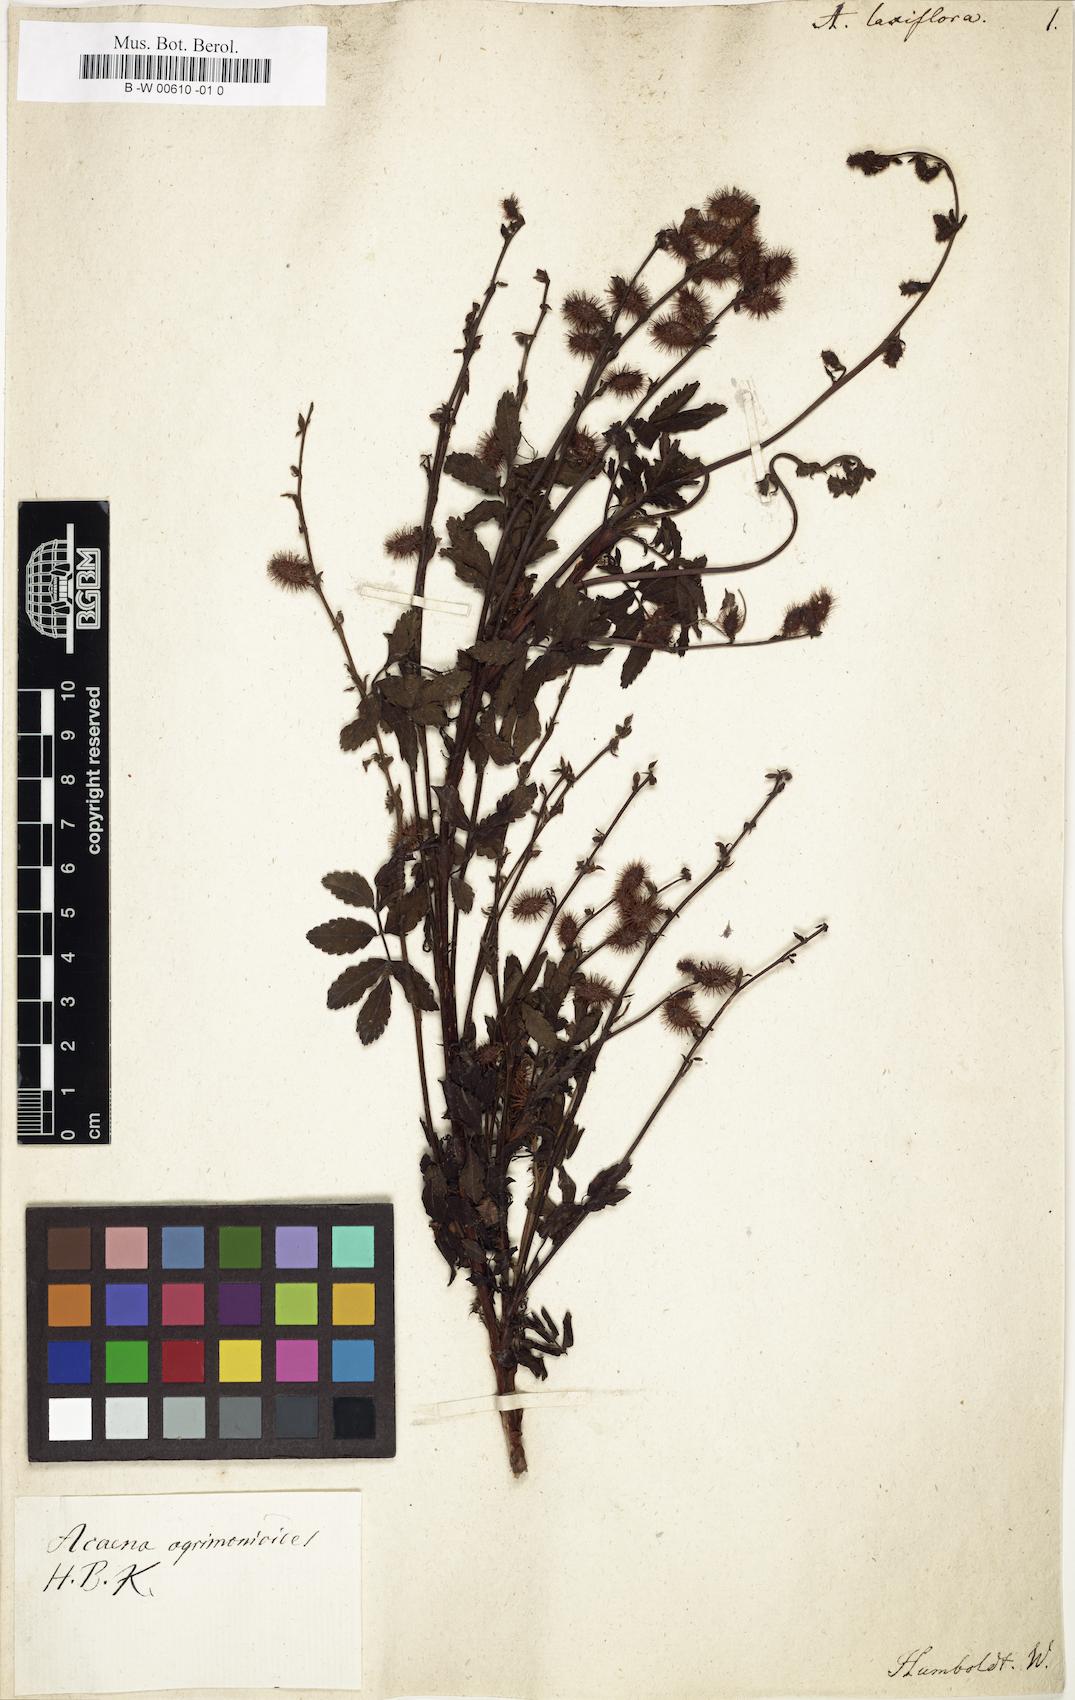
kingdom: Plantae
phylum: Tracheophyta
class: Magnoliopsida
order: Rosales
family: Rosaceae
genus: Acaena
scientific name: Acaena laxiflora
